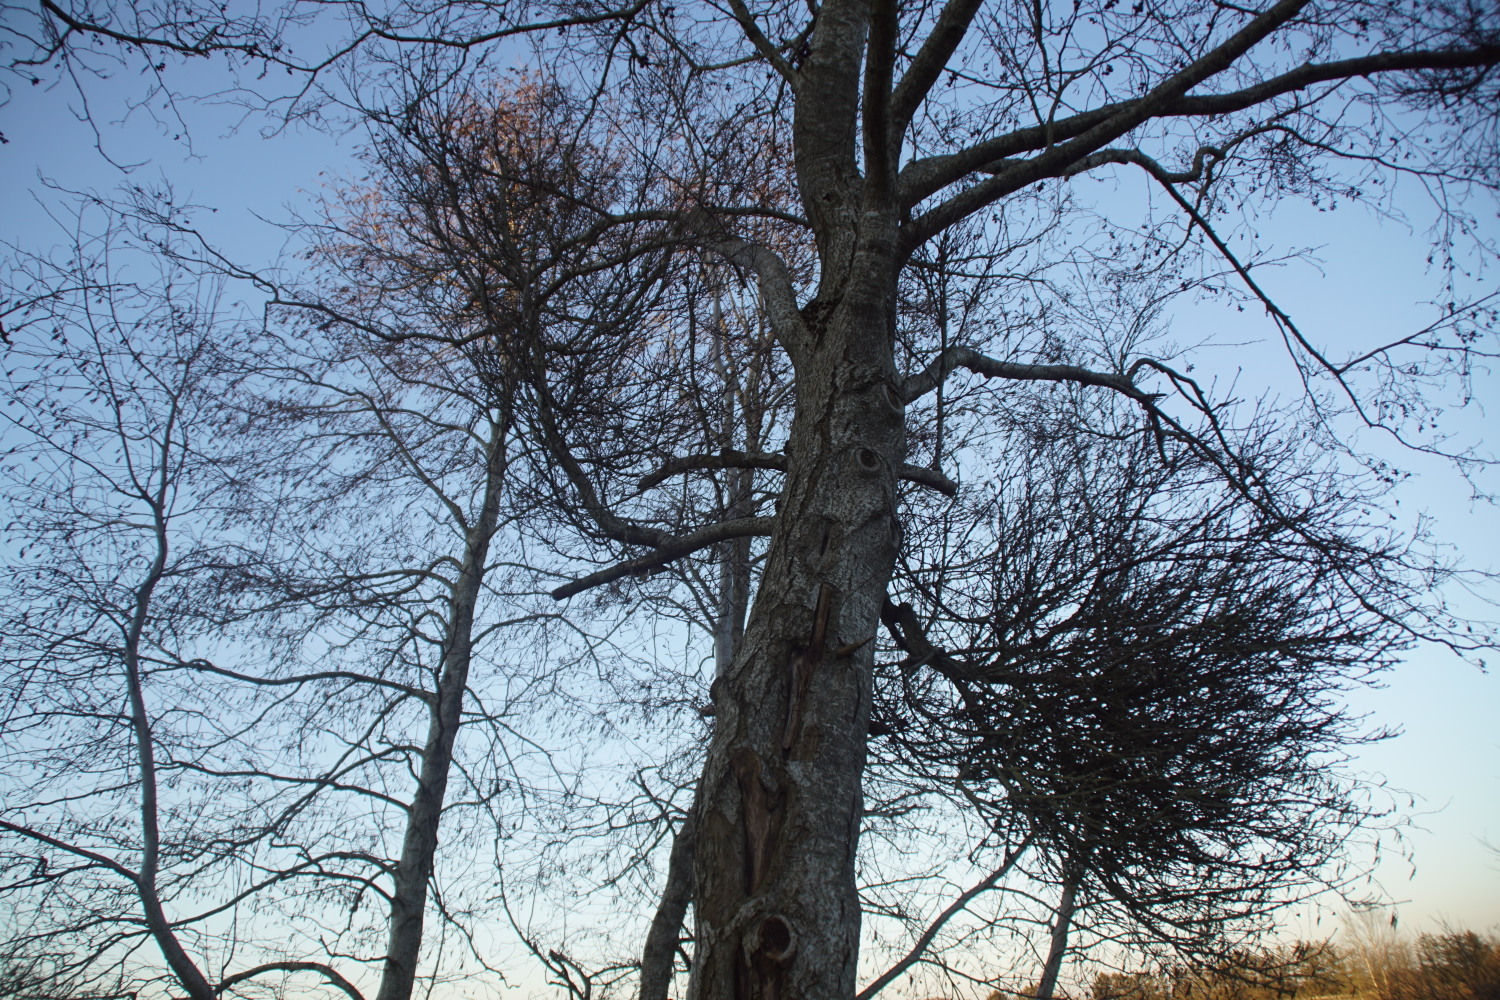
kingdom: Fungi
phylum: Ascomycota
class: Taphrinomycetes
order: Taphrinales
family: Taphrinaceae
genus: Taphrina
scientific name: Taphrina epiphylla
